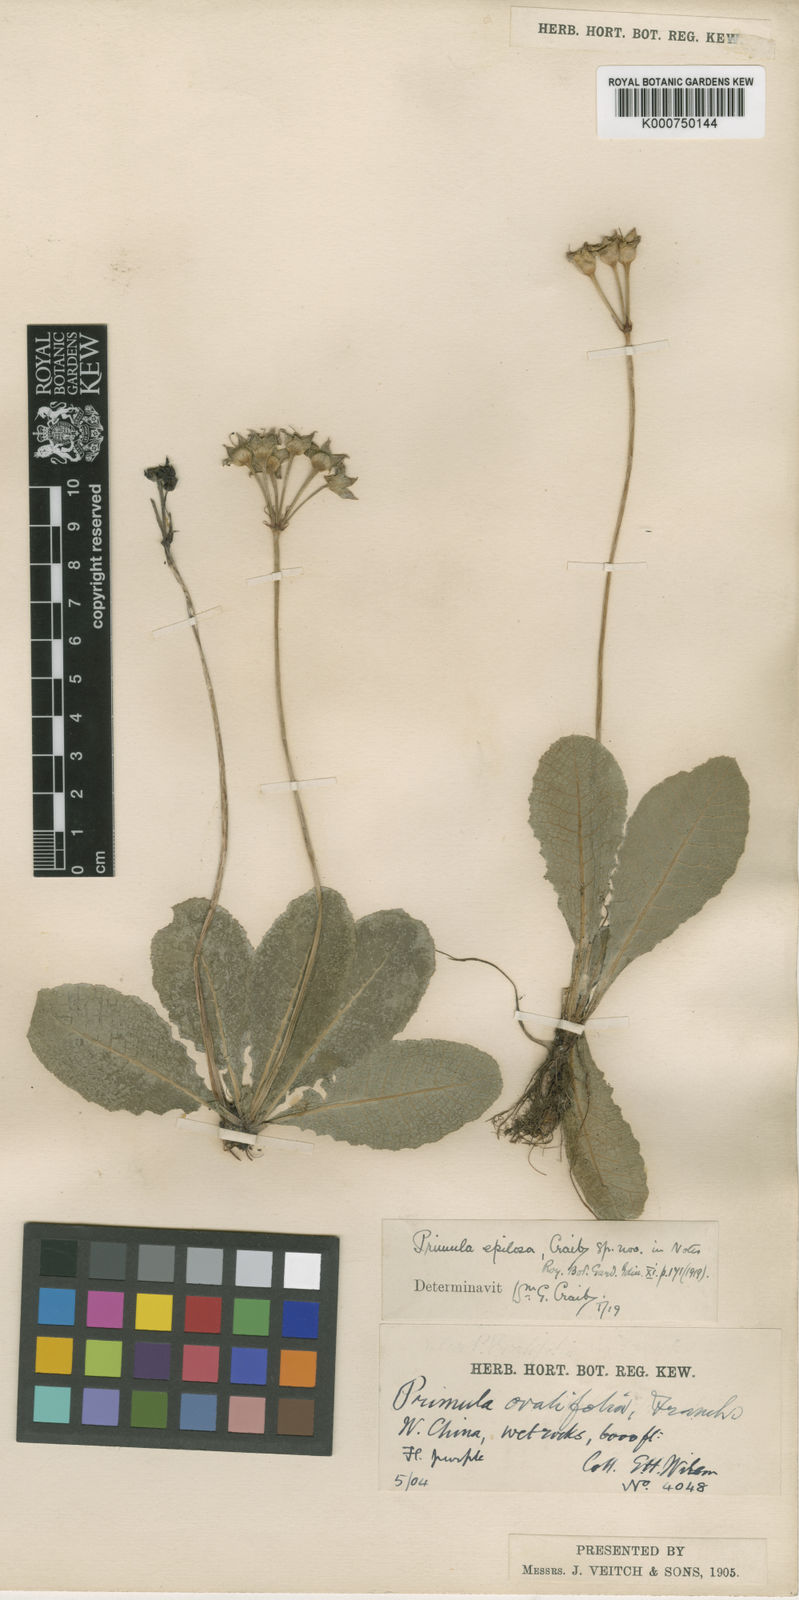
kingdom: Plantae
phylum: Tracheophyta
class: Magnoliopsida
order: Ericales
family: Primulaceae
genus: Primula
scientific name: Primula epilosa
